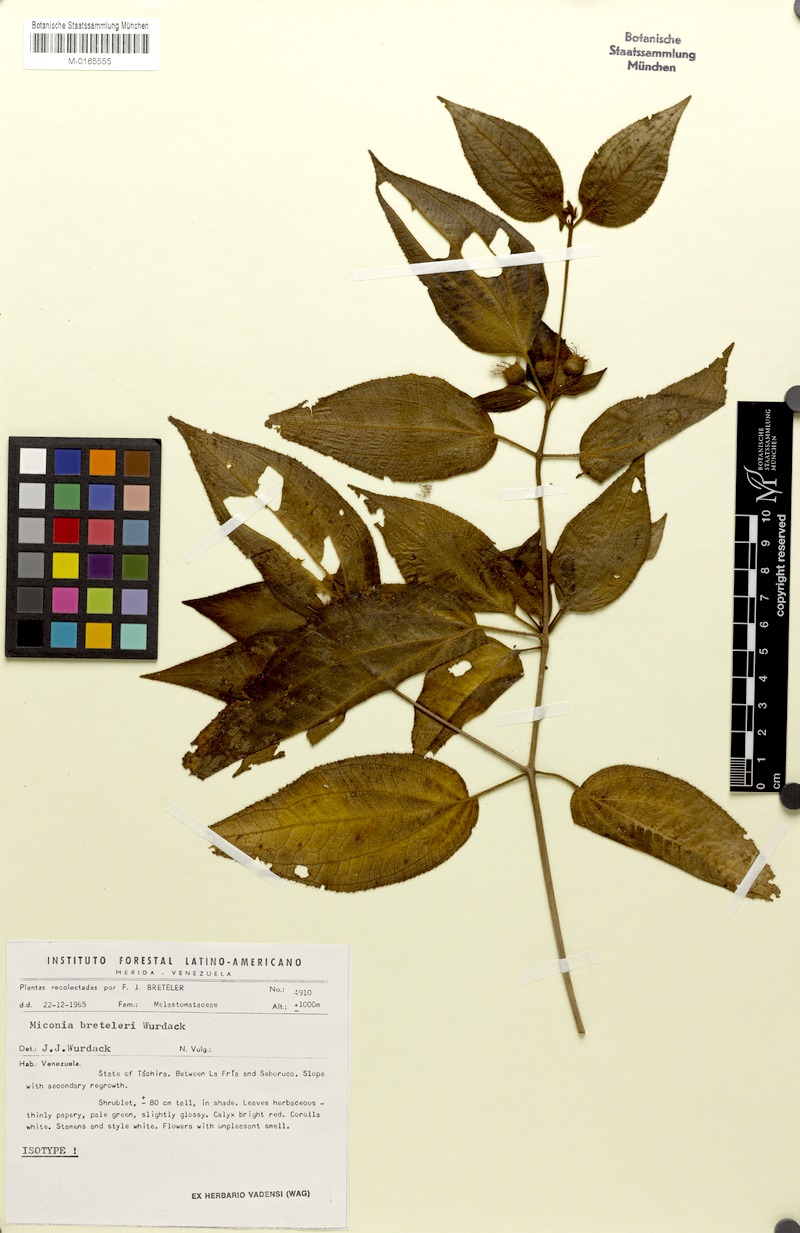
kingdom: Plantae
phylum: Tracheophyta
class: Magnoliopsida
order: Myrtales
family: Melastomataceae
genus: Miconia
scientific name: Miconia breteleri
